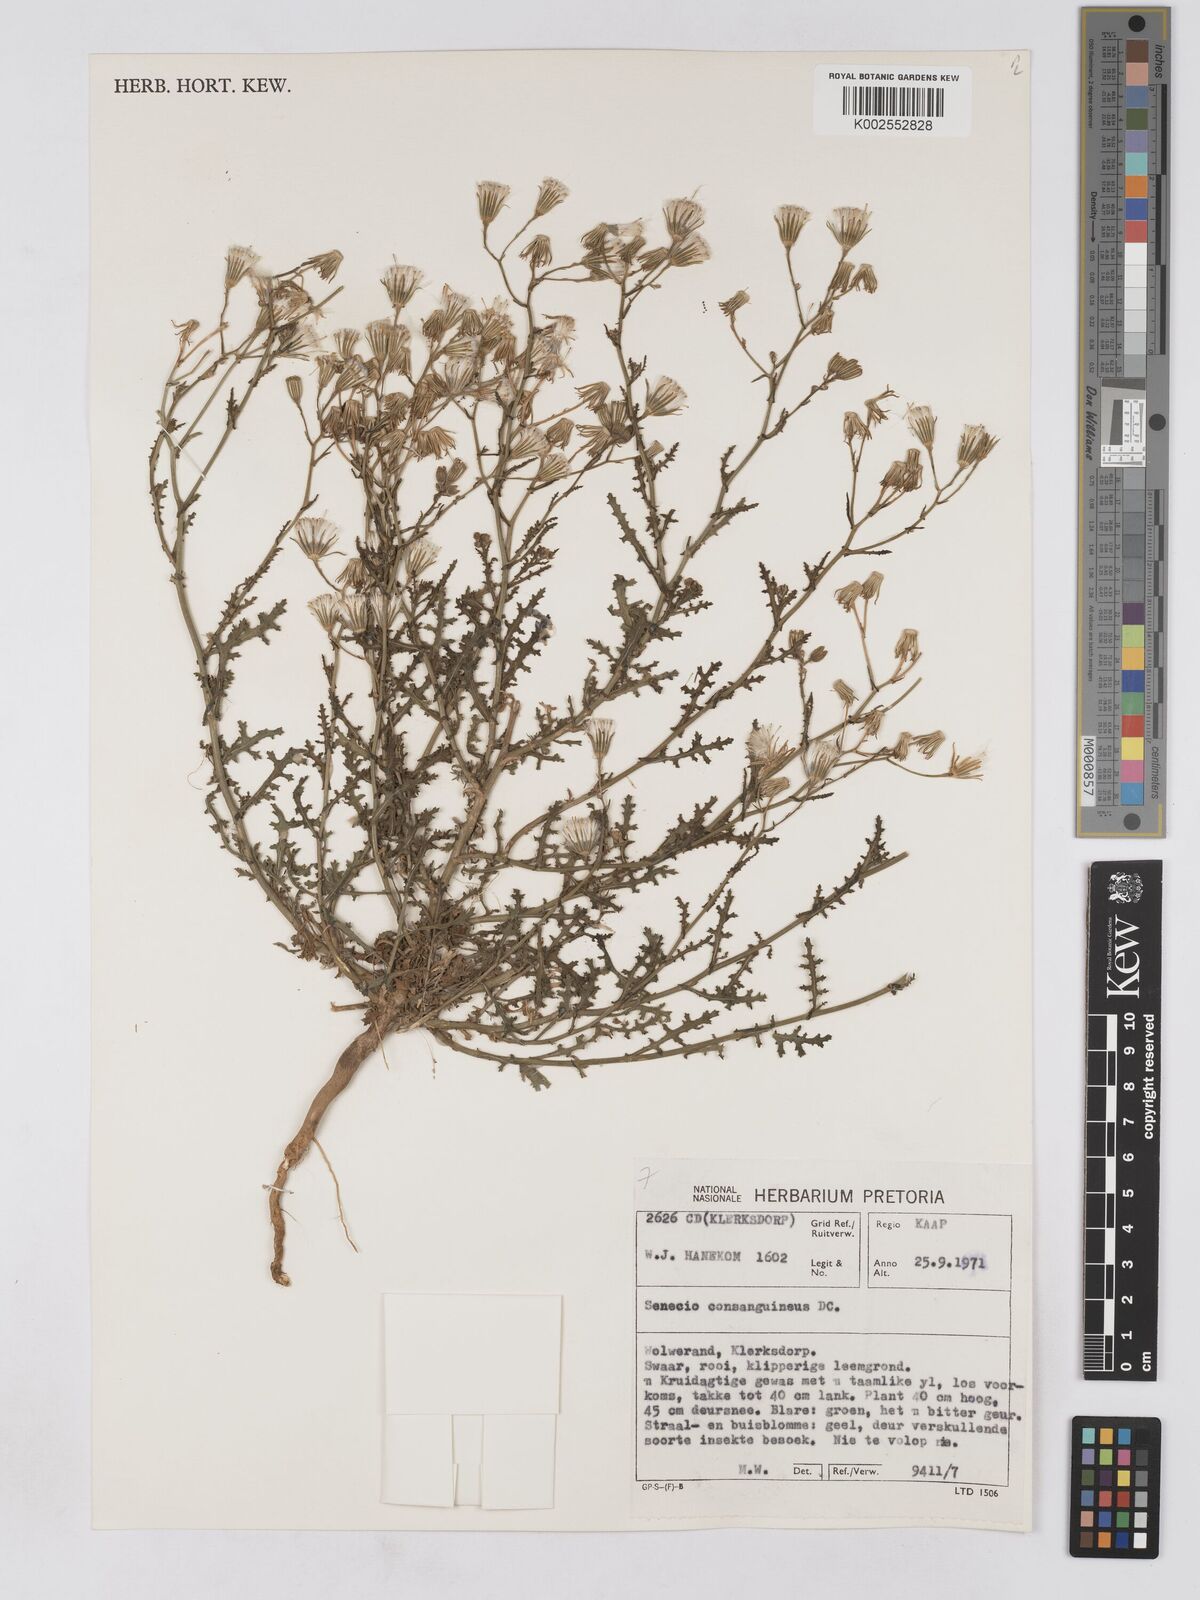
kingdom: Plantae
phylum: Tracheophyta
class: Magnoliopsida
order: Asterales
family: Asteraceae
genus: Senecio
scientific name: Senecio consanguineus
